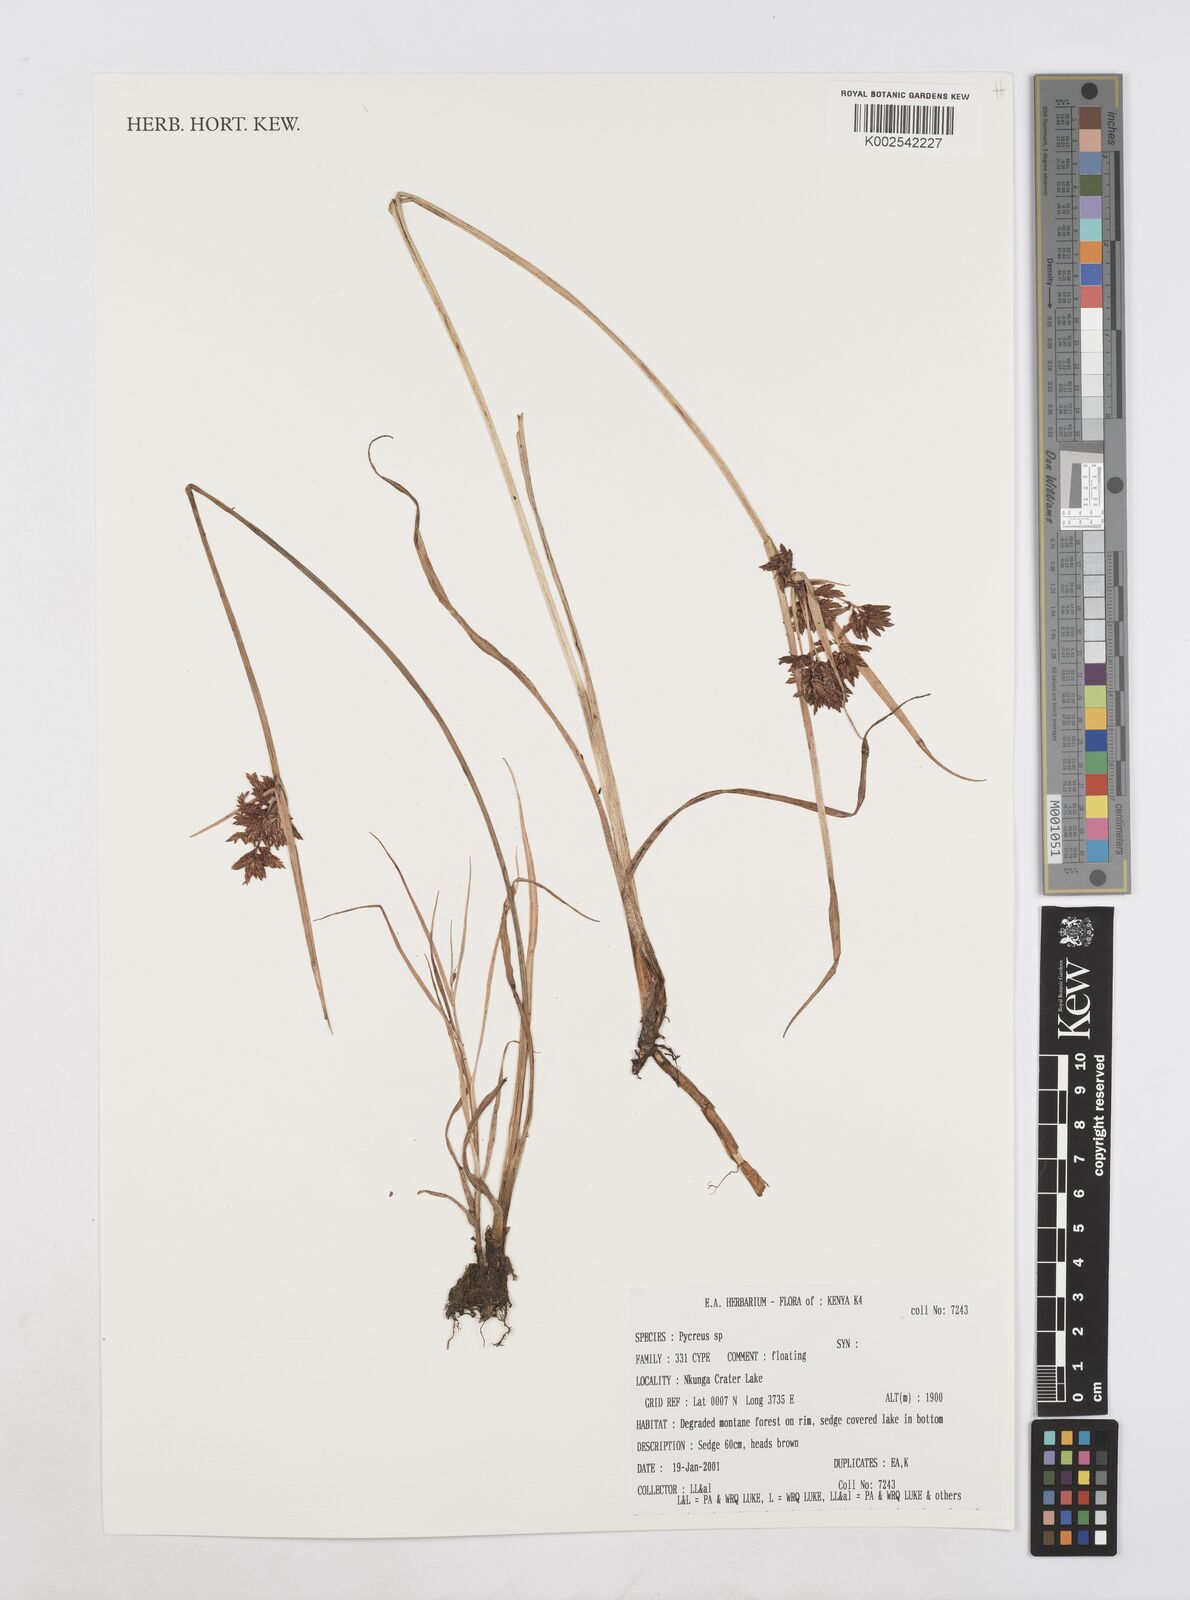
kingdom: Plantae
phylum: Tracheophyta
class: Liliopsida
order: Poales
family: Cyperaceae
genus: Cyperus
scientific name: Cyperus
